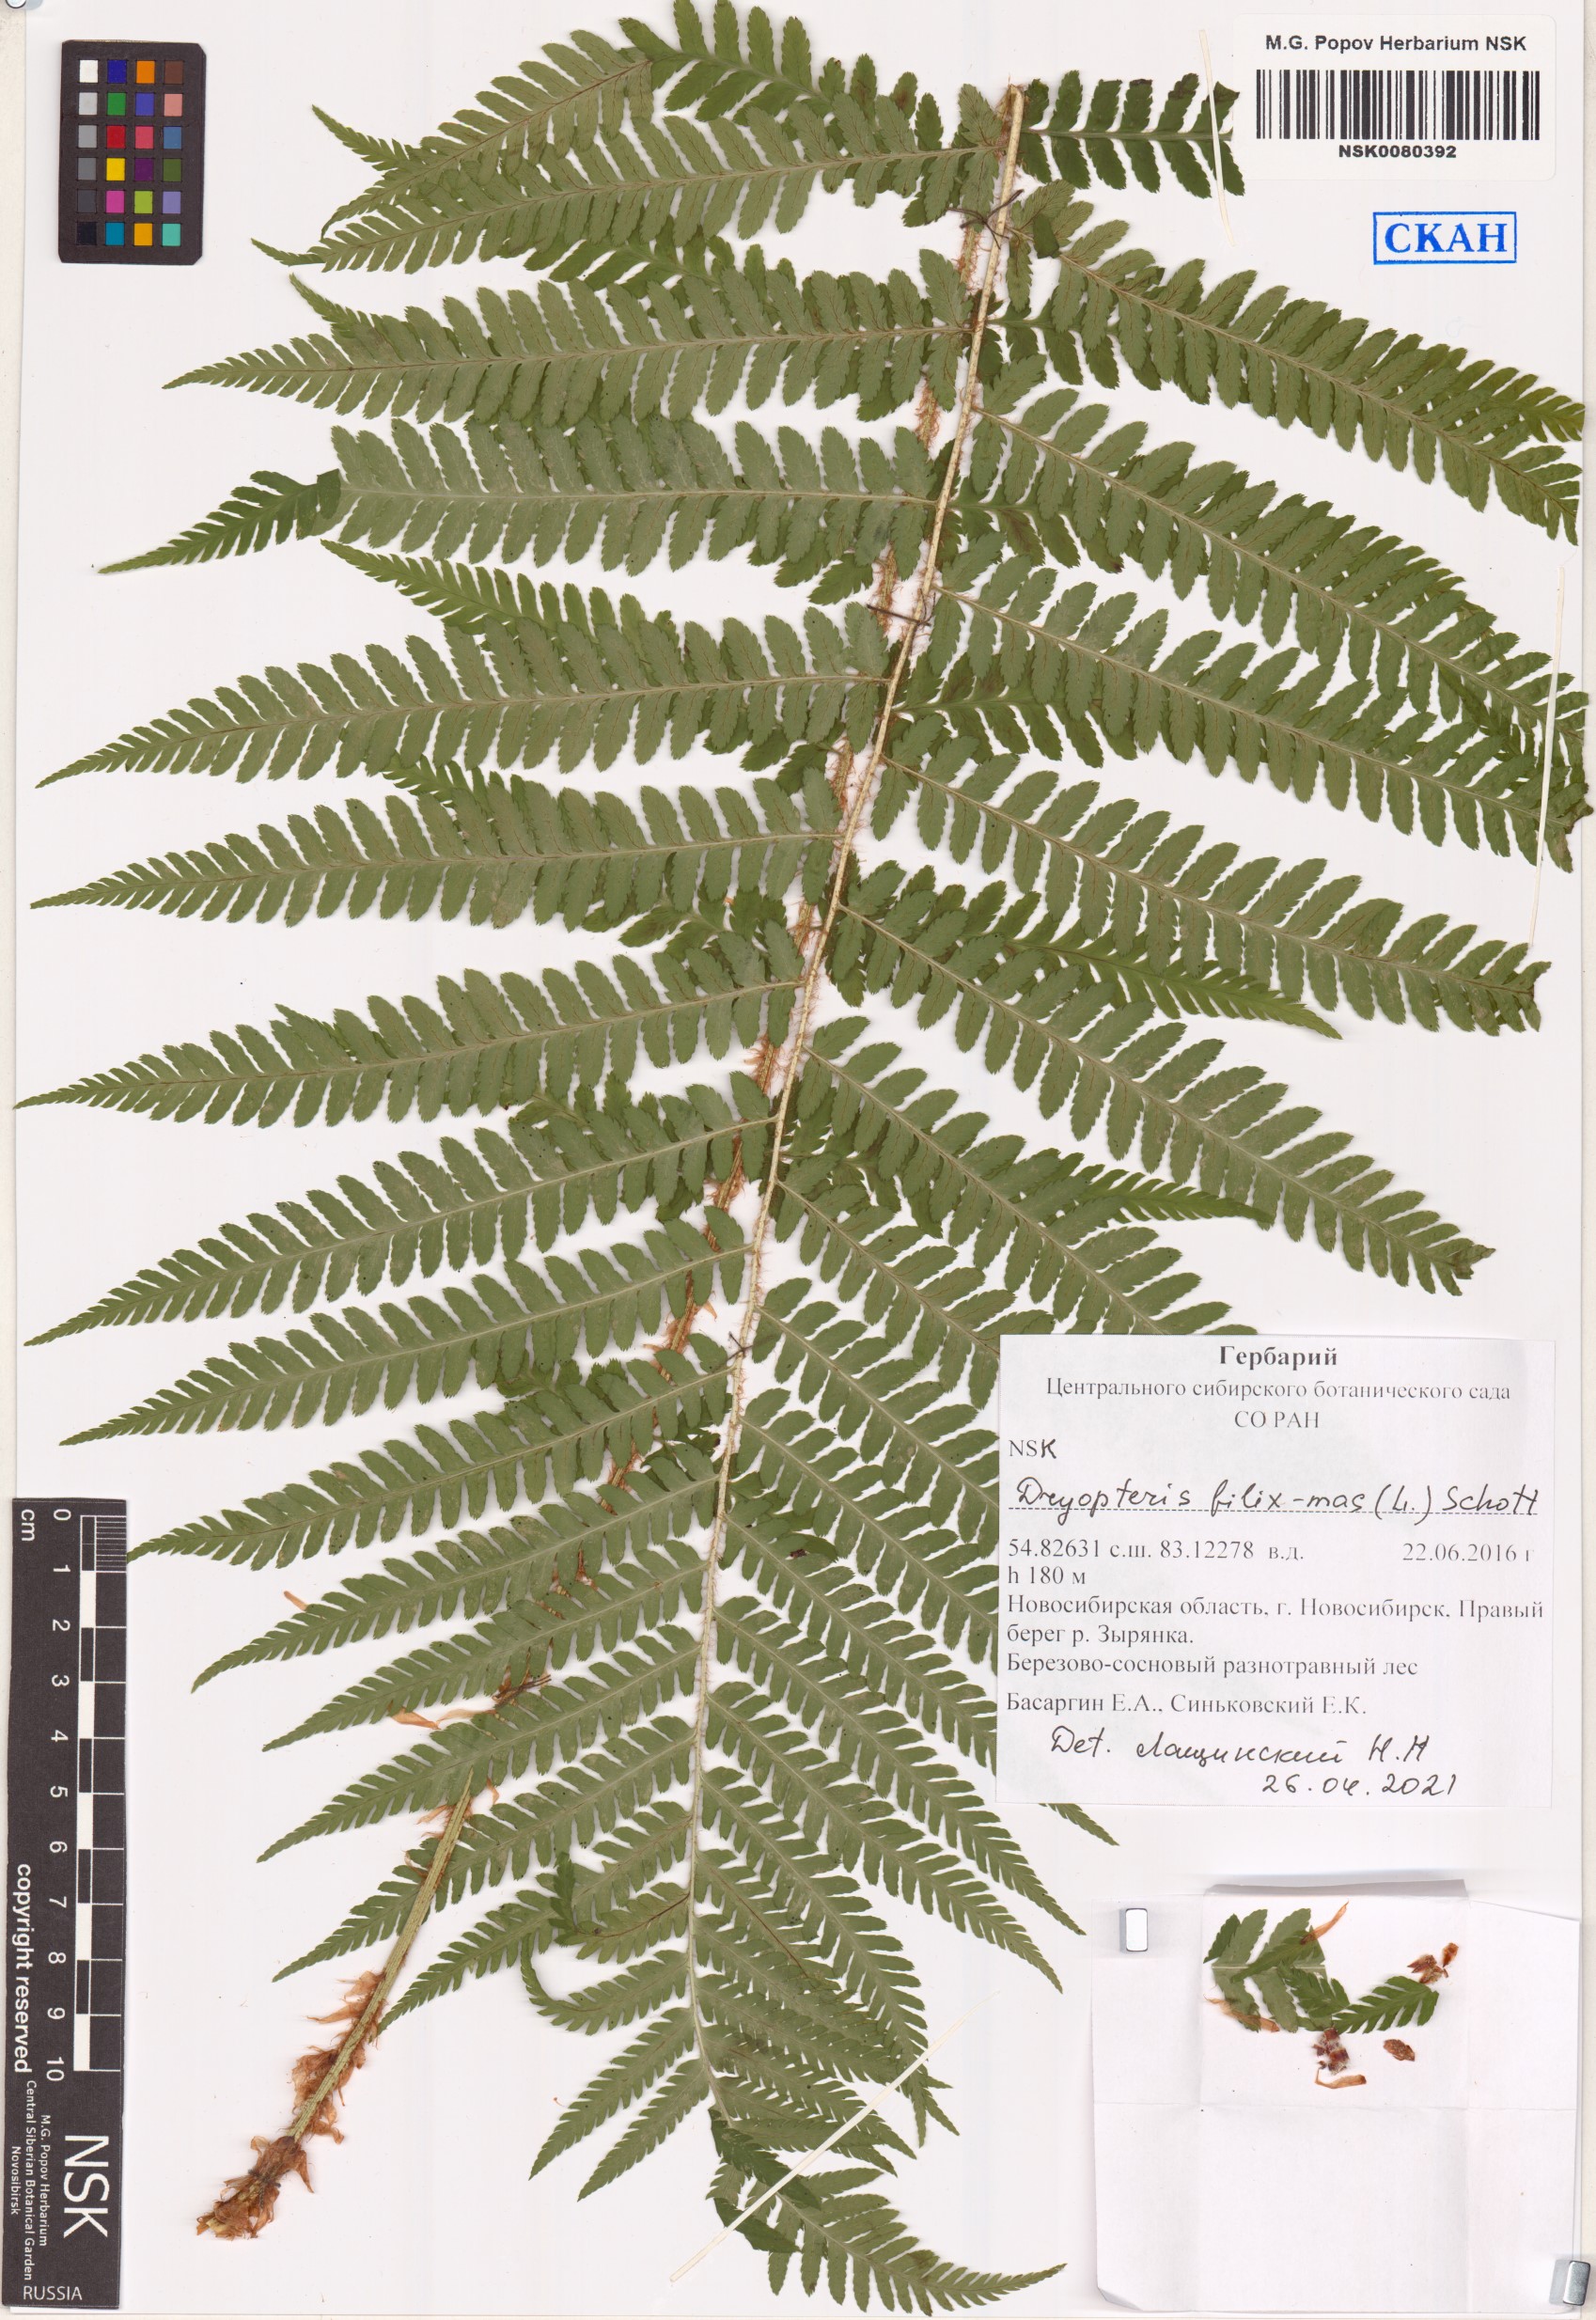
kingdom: Plantae
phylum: Tracheophyta
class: Polypodiopsida
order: Polypodiales
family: Dryopteridaceae
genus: Dryopteris
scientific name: Dryopteris filix-mas
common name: Male fern
